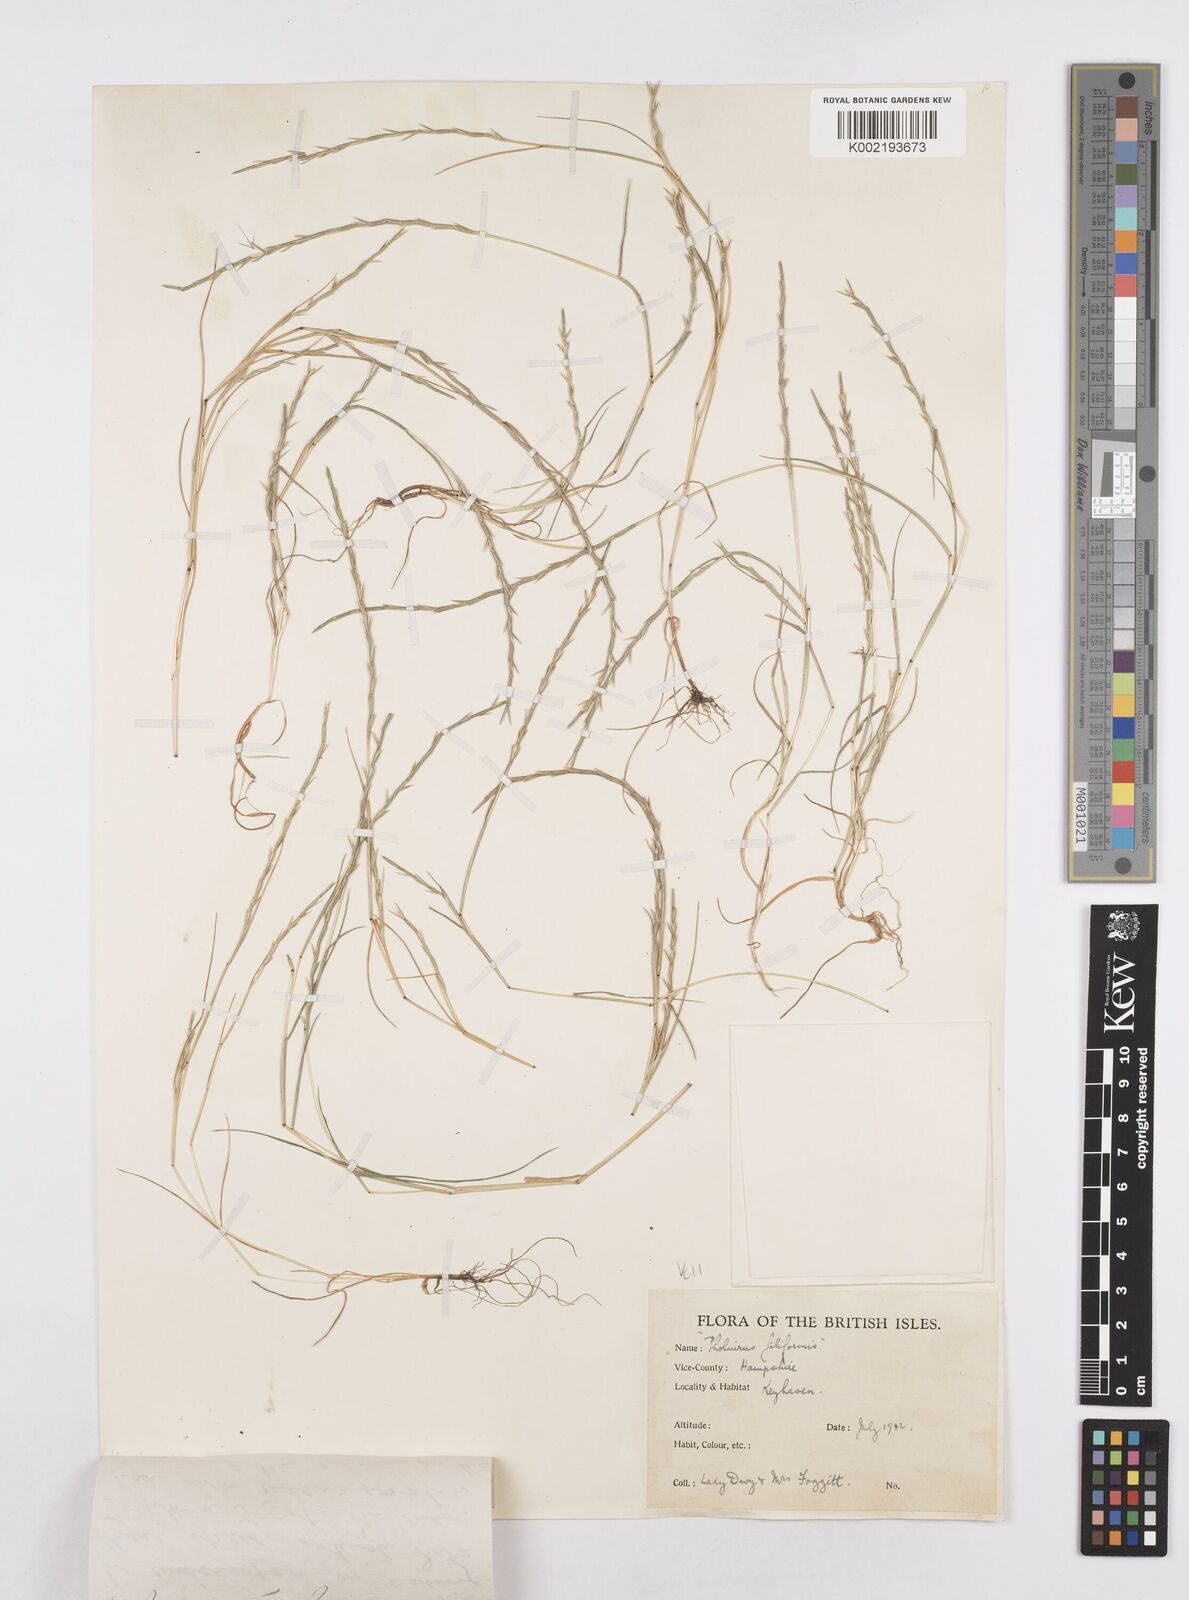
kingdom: Plantae
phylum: Tracheophyta
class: Liliopsida
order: Poales
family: Poaceae
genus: Parapholis
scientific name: Parapholis strigosa
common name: Hard-grass
